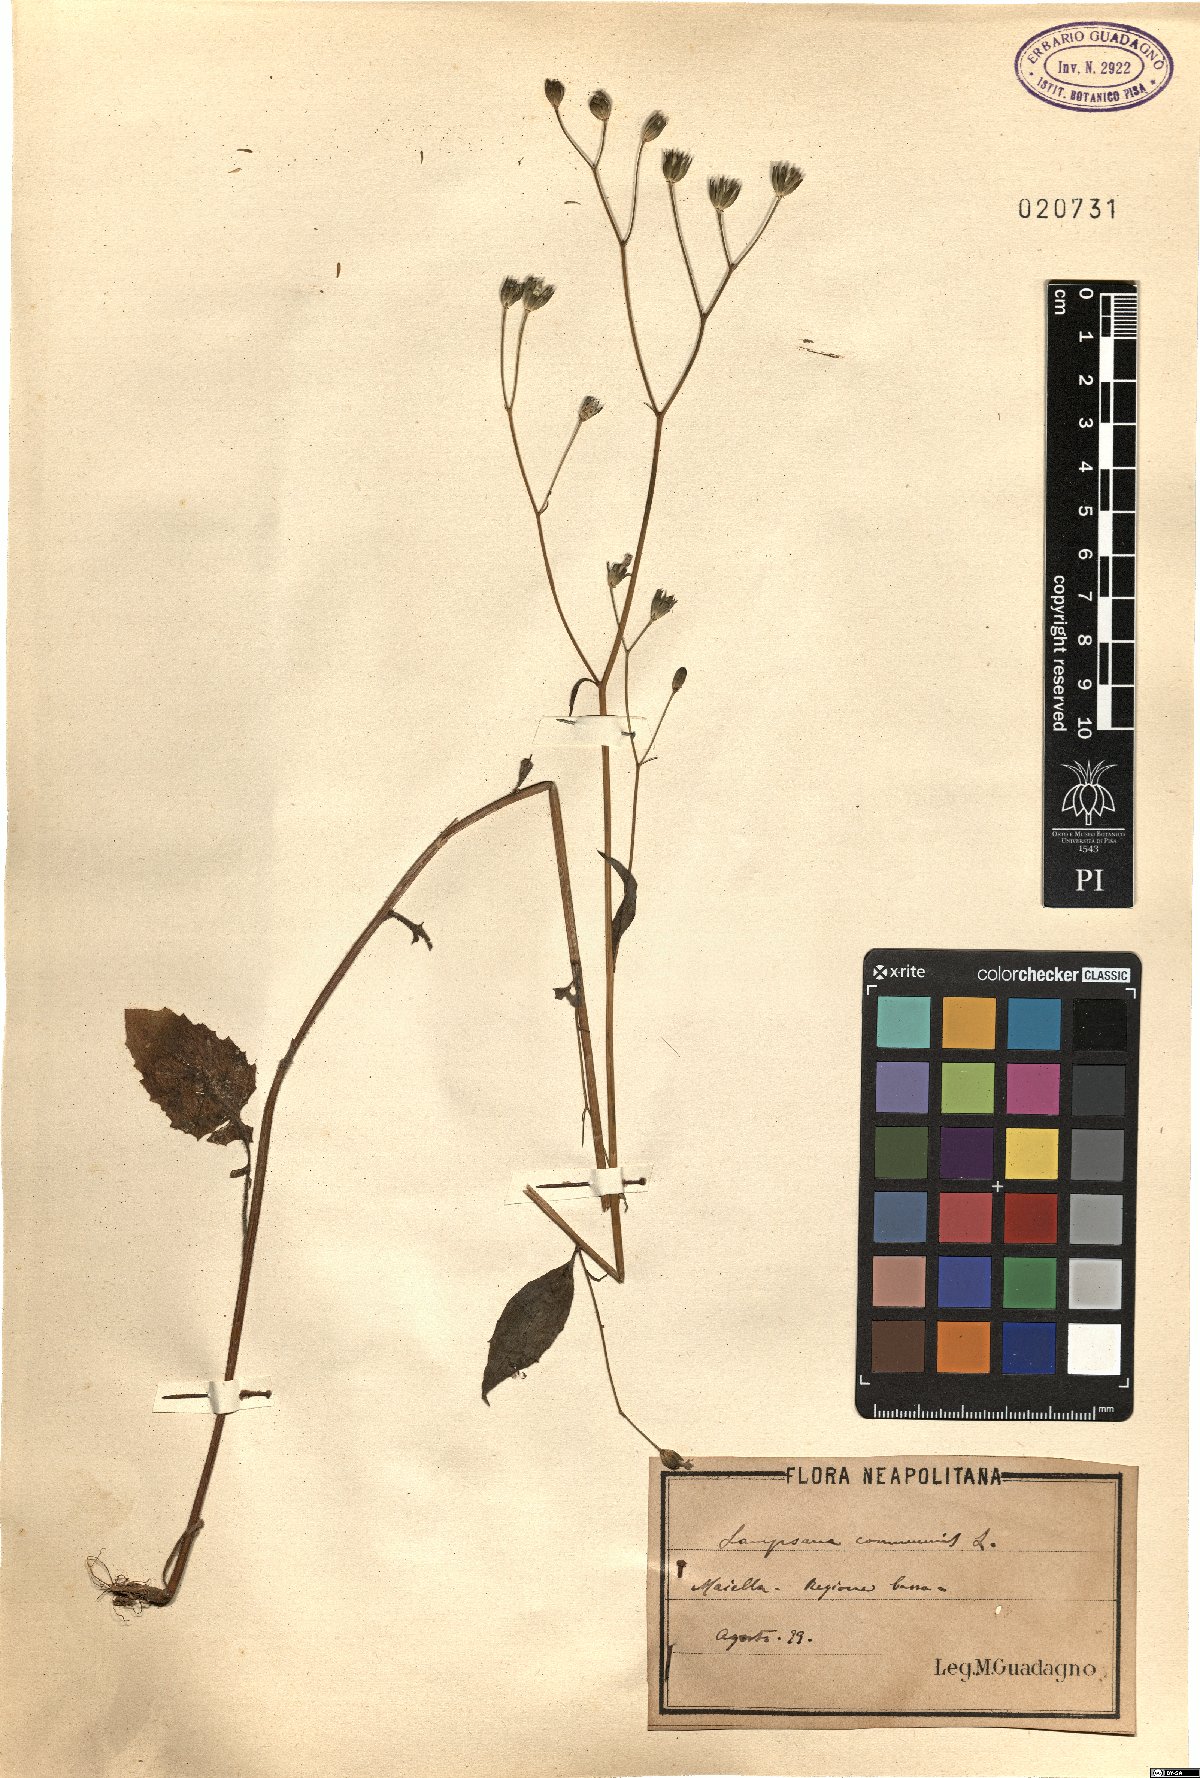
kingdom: Plantae
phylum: Tracheophyta
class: Magnoliopsida
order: Asterales
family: Asteraceae
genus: Lapsana
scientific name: Lapsana communis
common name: Nipplewort
